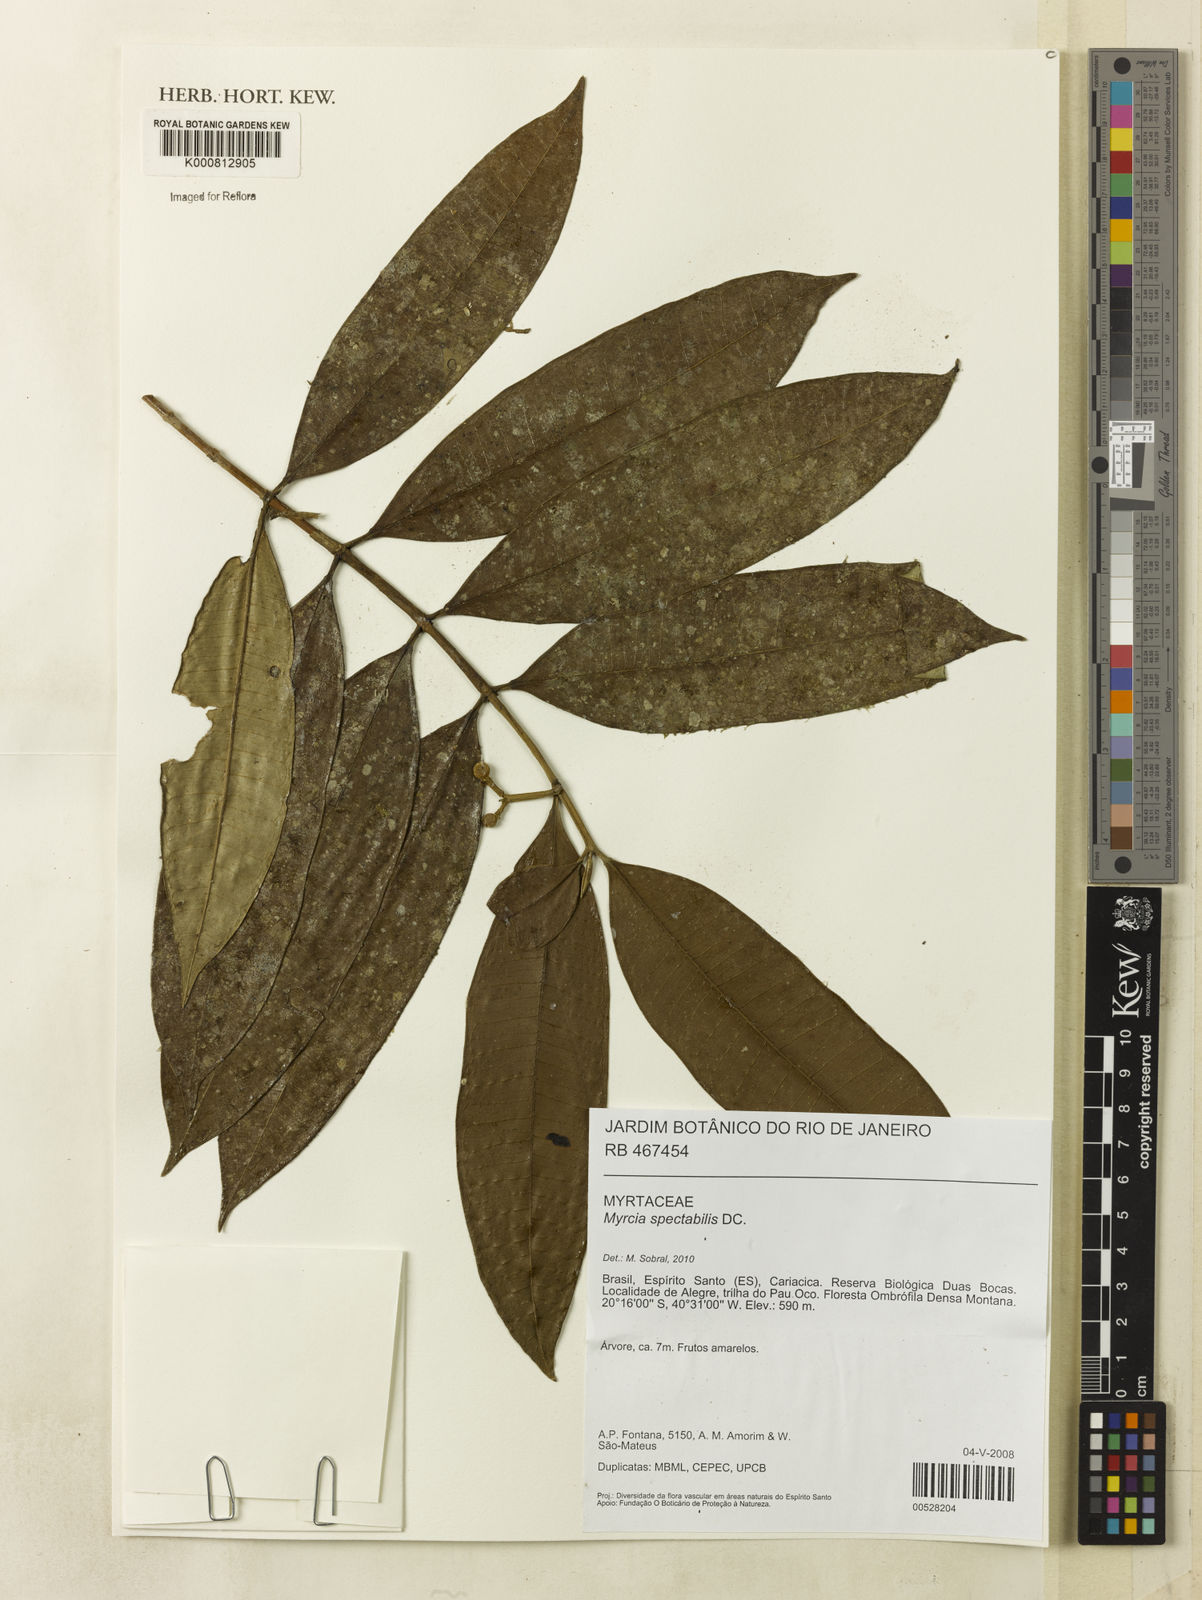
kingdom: Plantae
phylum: Tracheophyta
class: Magnoliopsida
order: Myrtales
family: Myrtaceae
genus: Myrcia
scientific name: Myrcia spectabilis
